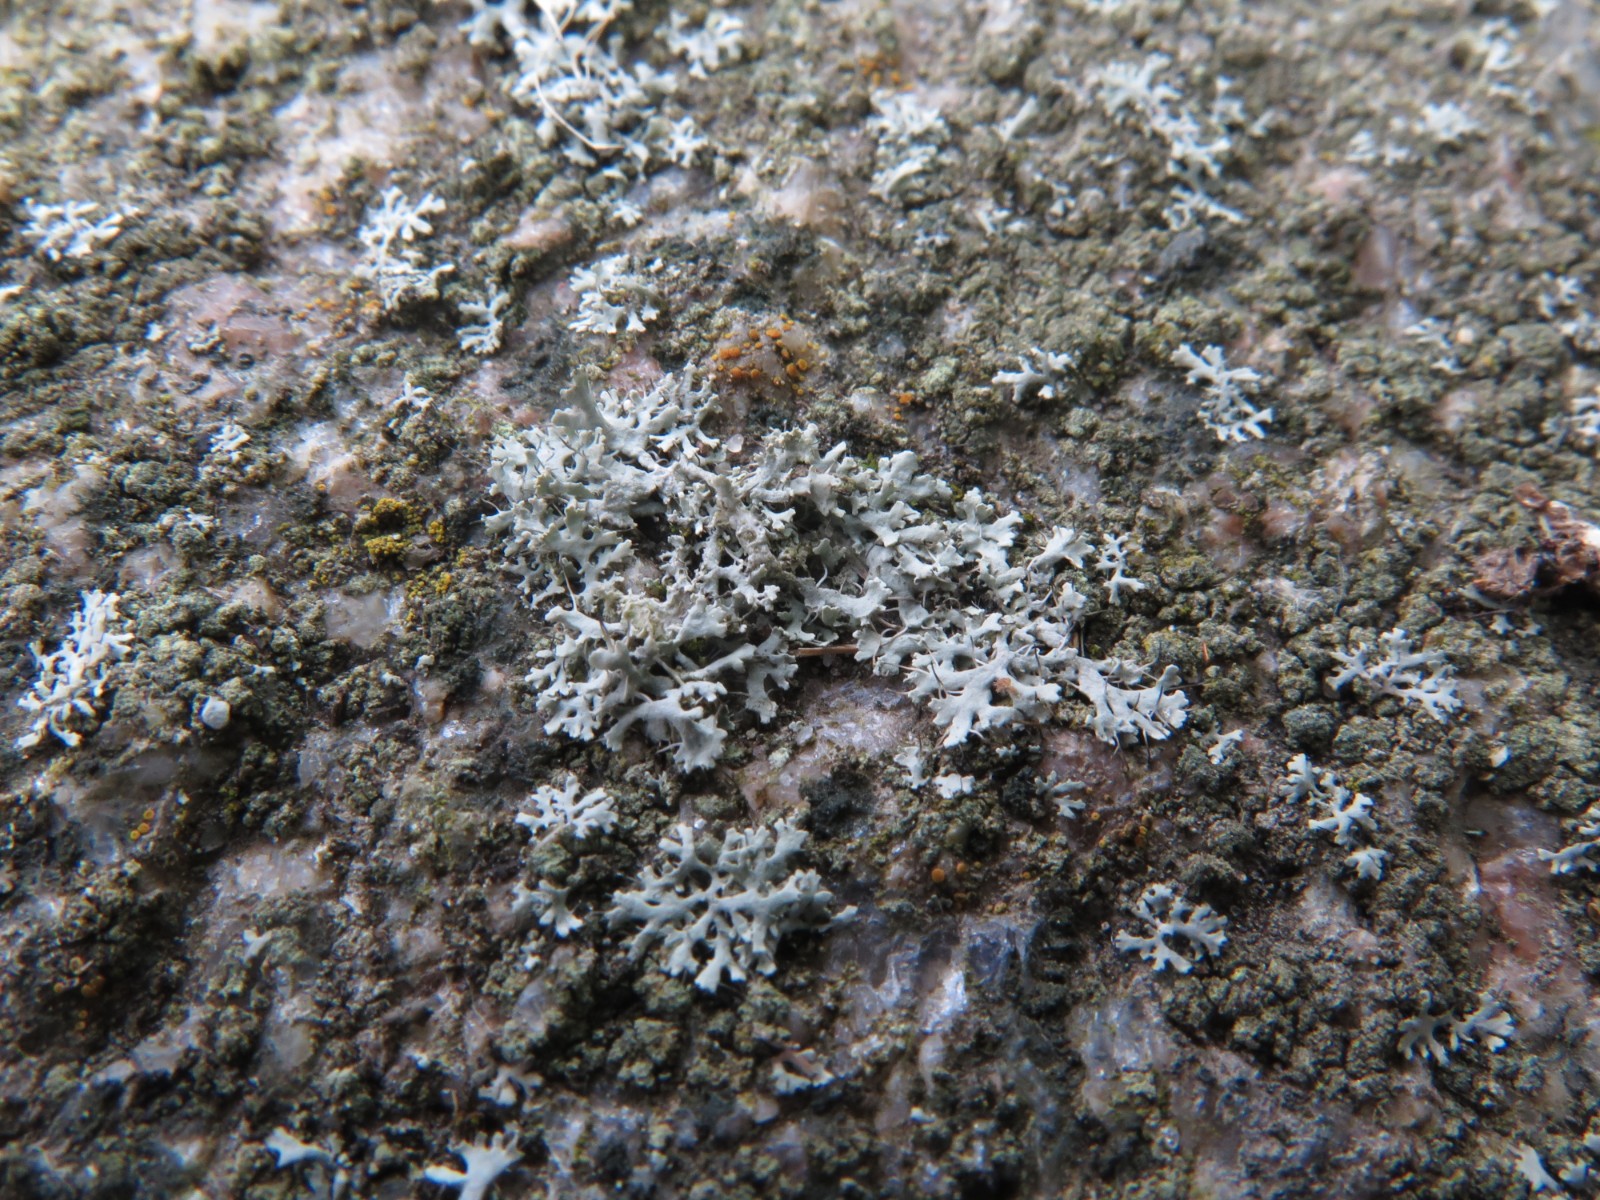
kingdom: Fungi
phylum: Ascomycota
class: Lecanoromycetes
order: Caliciales
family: Physciaceae
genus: Physcia
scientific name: Physcia tenella
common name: spæd rosetlav
